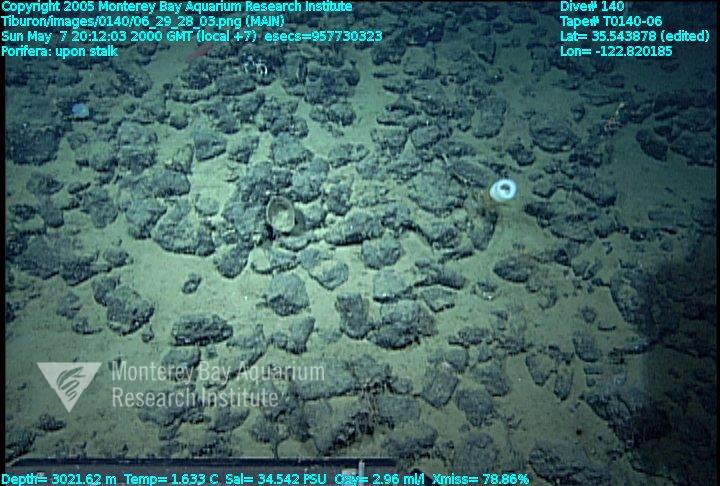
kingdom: Animalia
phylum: Porifera
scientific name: Porifera
